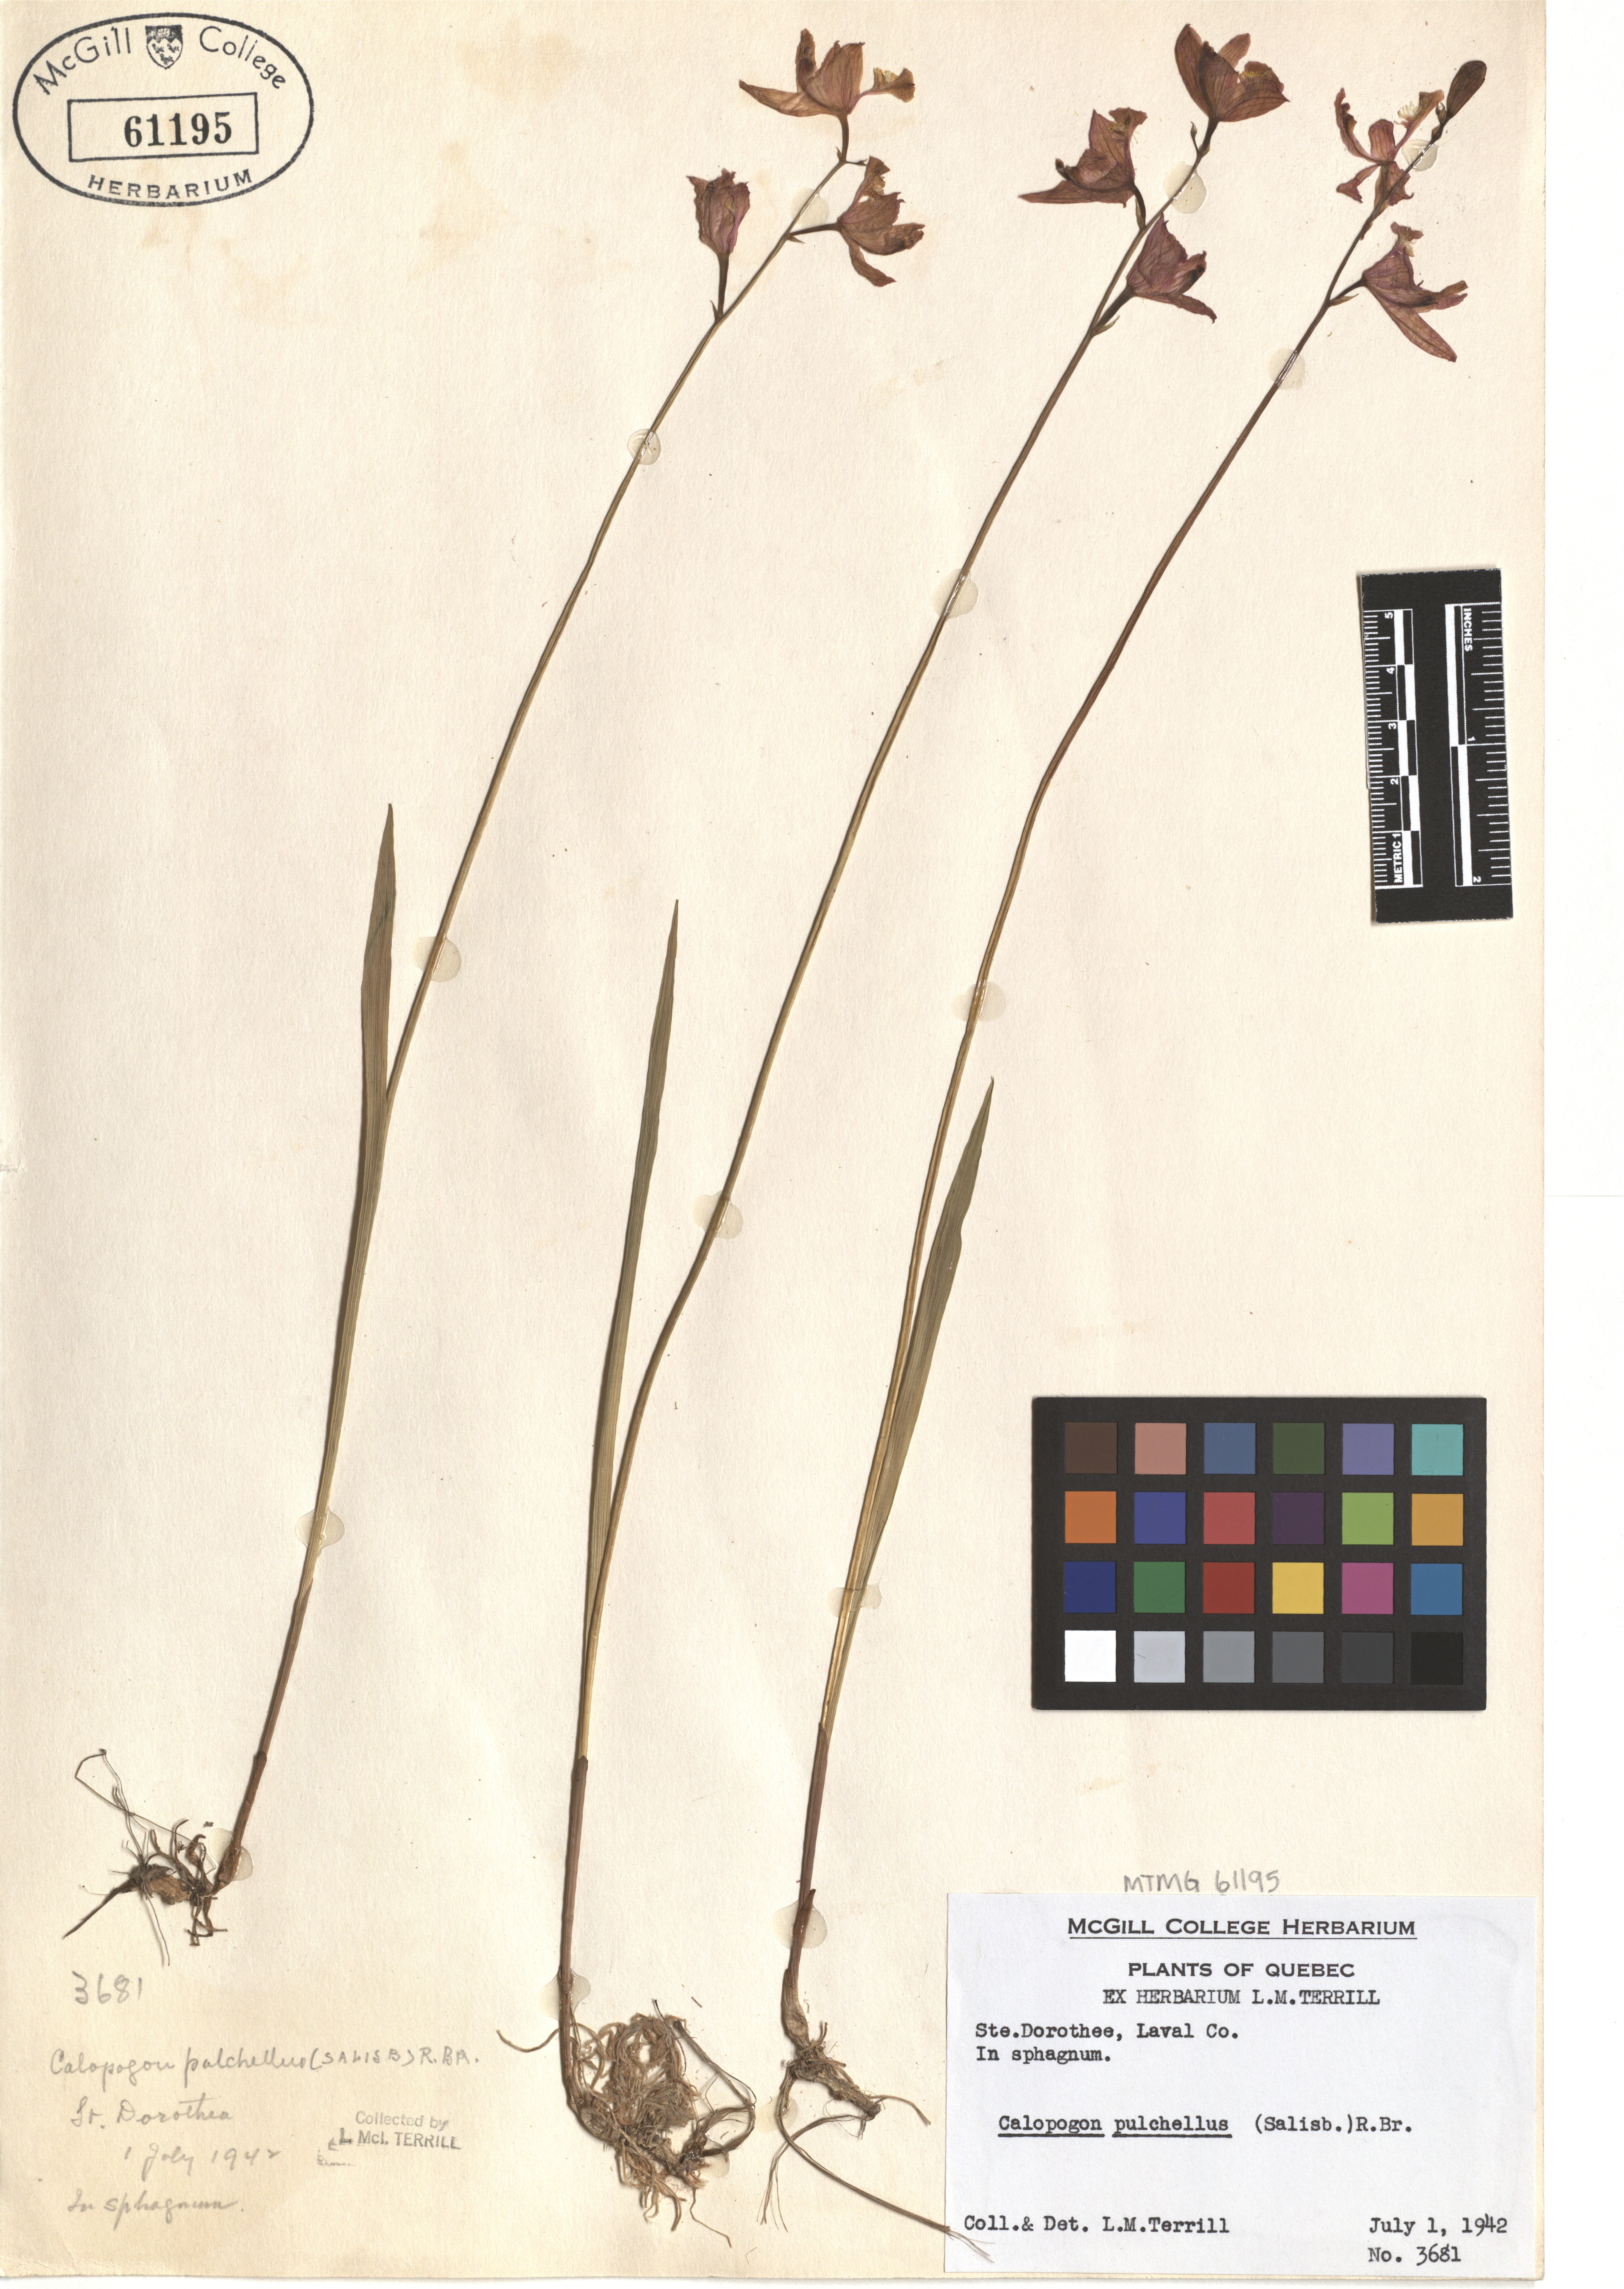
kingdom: Plantae
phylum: Tracheophyta
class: Liliopsida
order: Asparagales
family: Orchidaceae
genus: Calopogon
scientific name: Calopogon tuberosus
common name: Grass-pink
